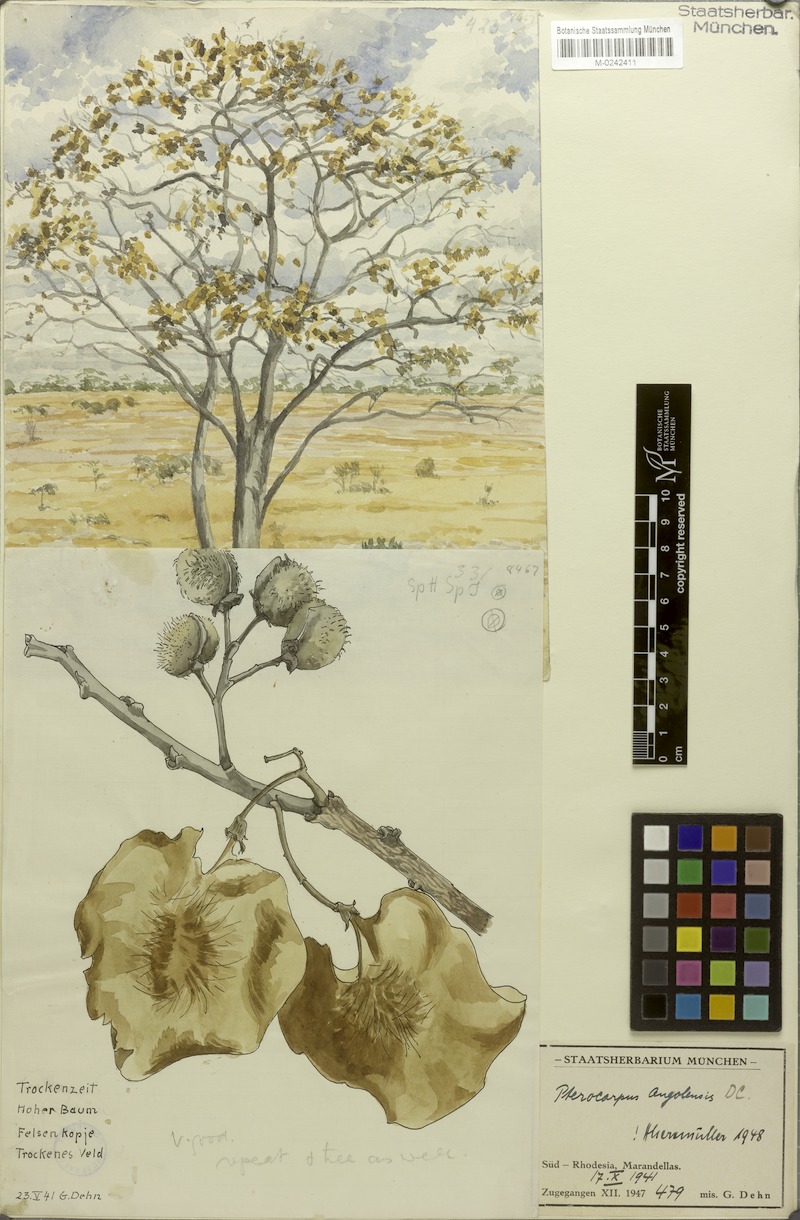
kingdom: Plantae
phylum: Tracheophyta
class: Magnoliopsida
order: Fabales
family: Fabaceae
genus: Pterocarpus
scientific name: Pterocarpus angolensis
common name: Bloodwood tree
